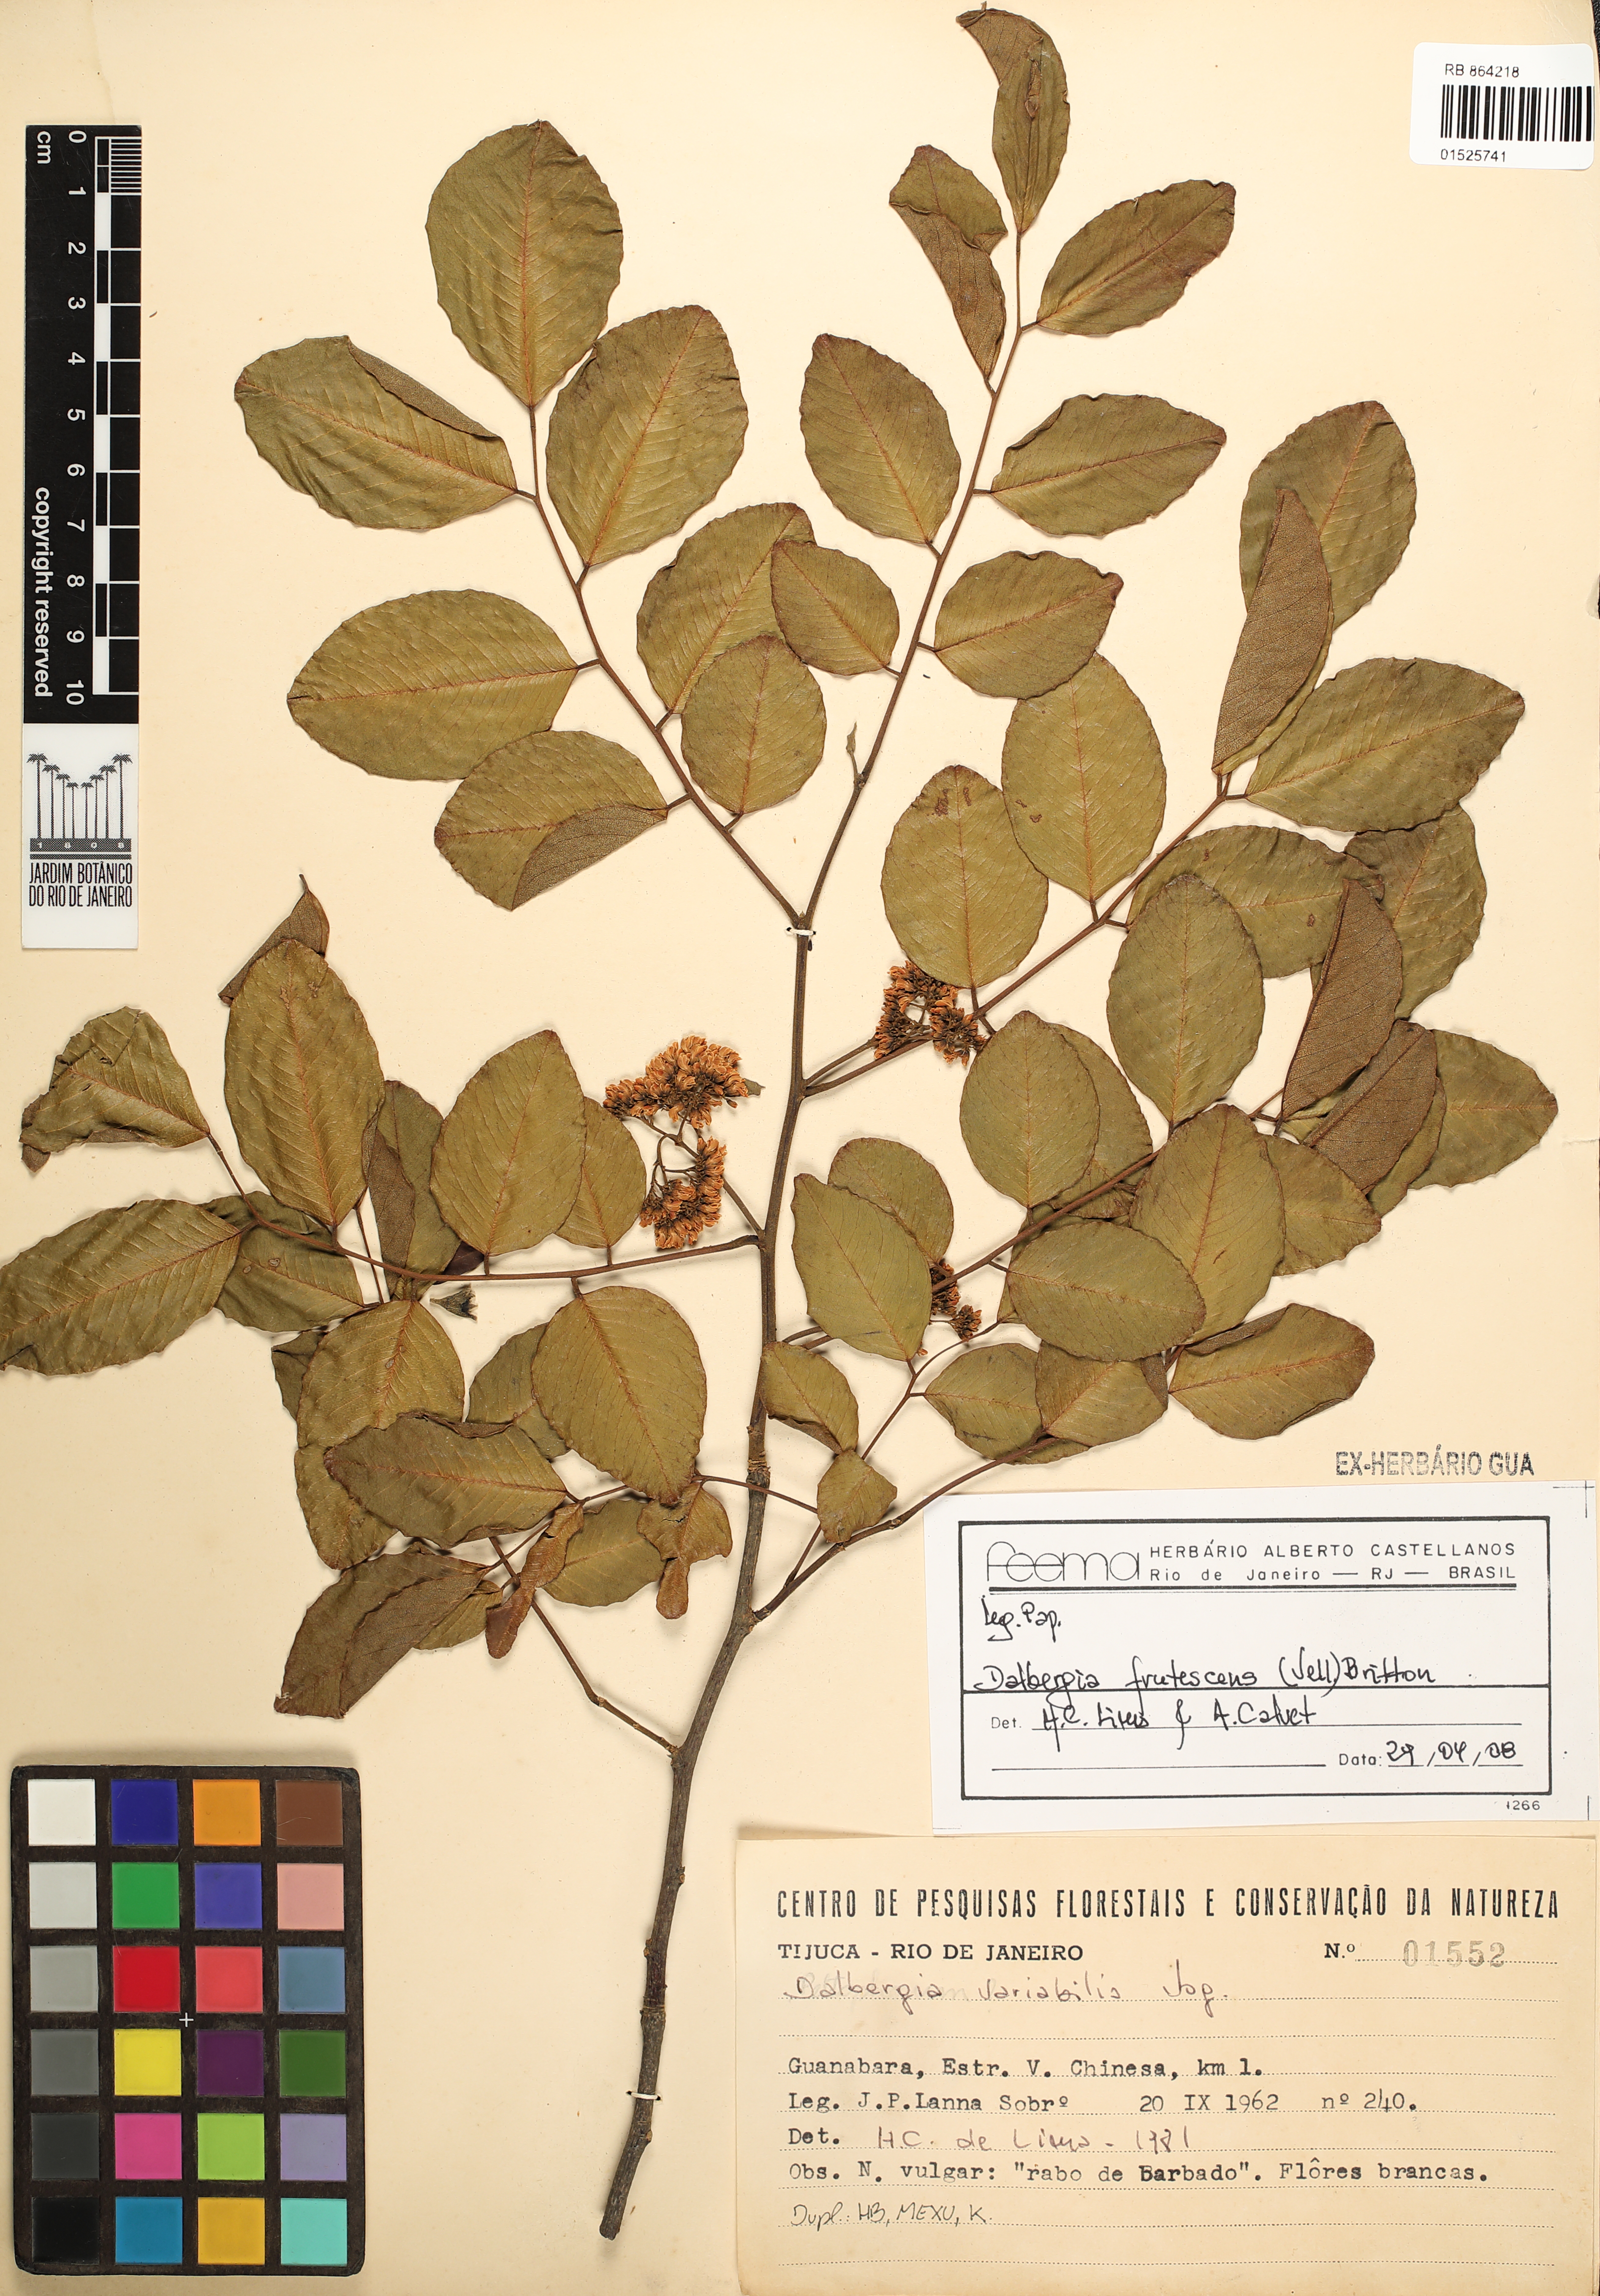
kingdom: Plantae
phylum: Tracheophyta
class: Magnoliopsida
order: Fabales
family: Fabaceae
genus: Dalbergia
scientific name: Dalbergia frutescens
